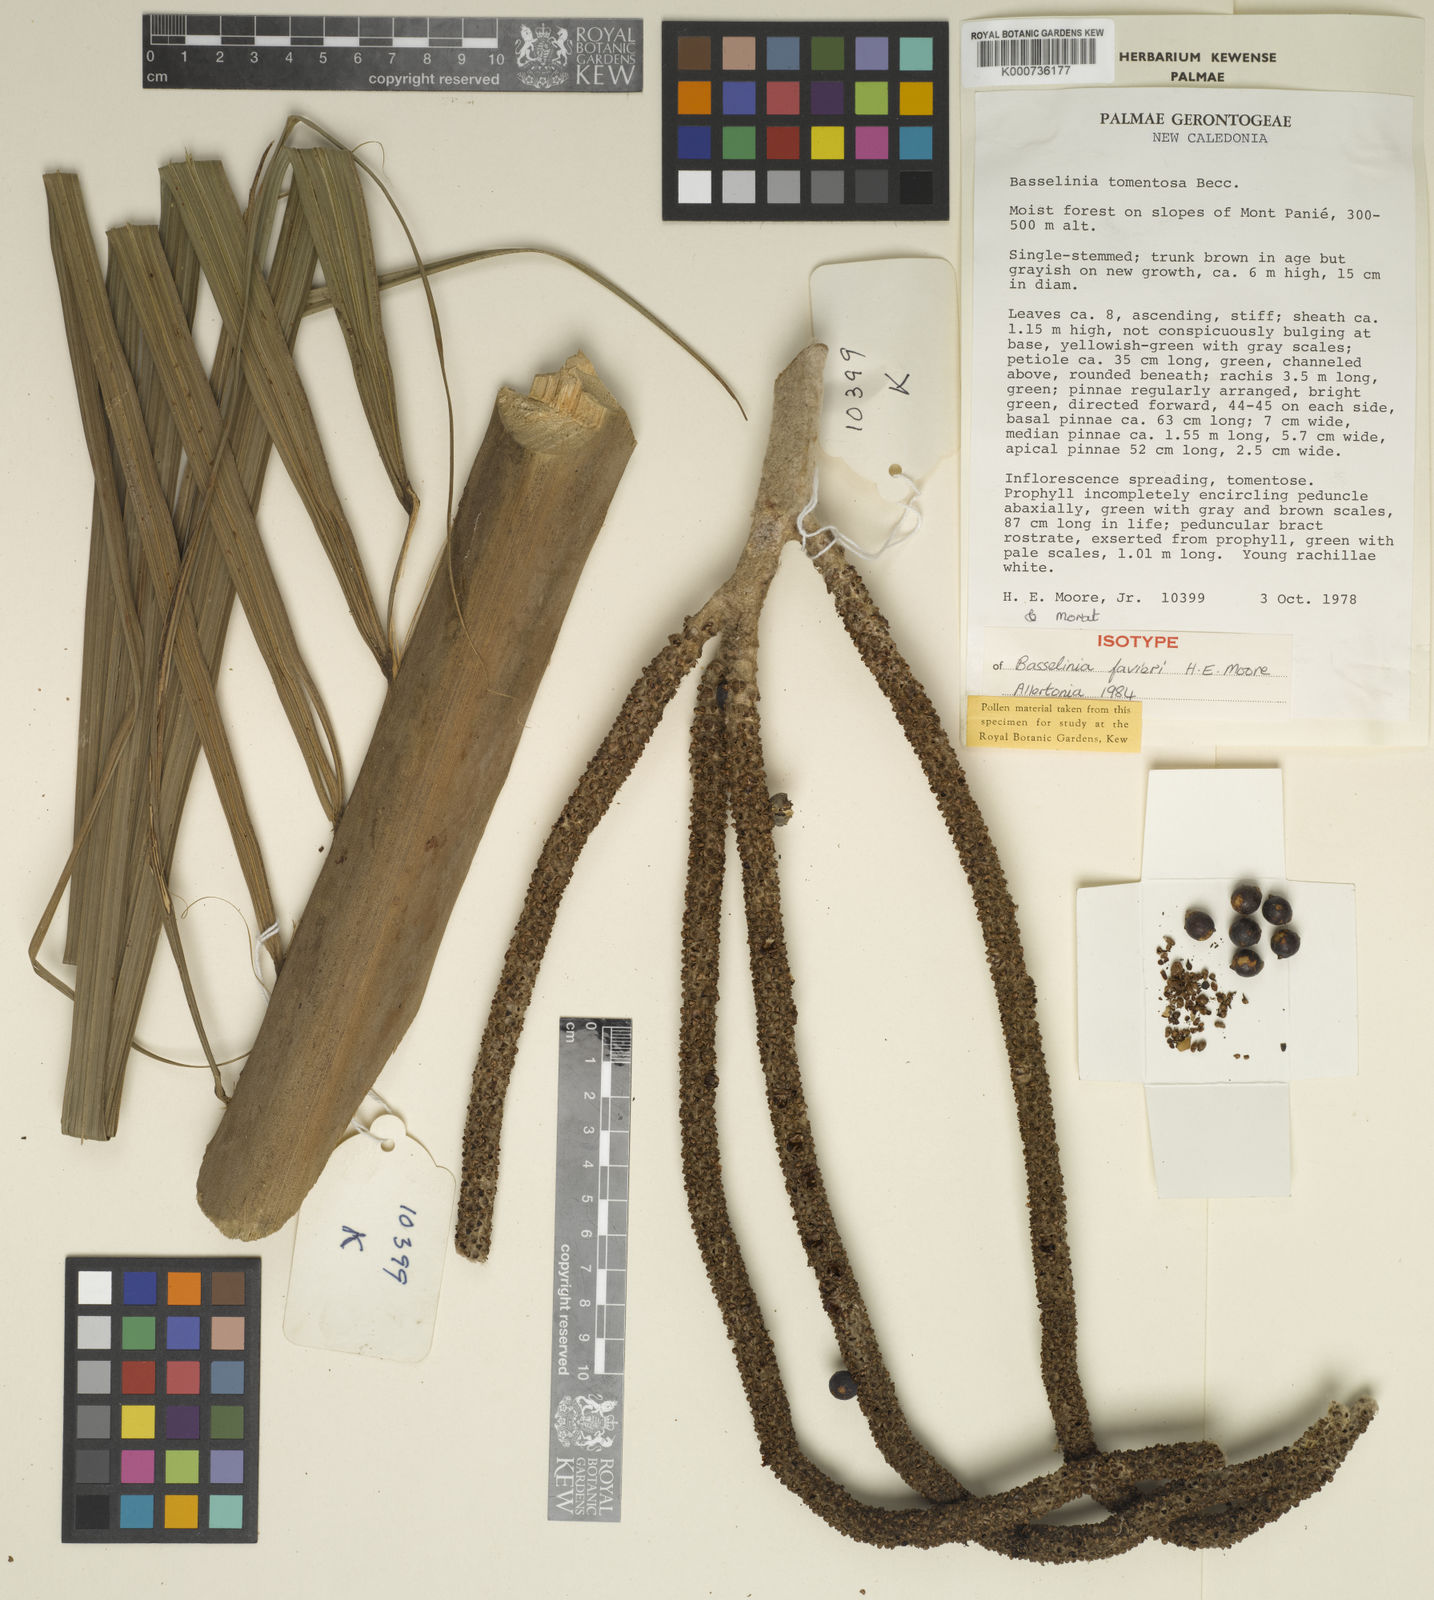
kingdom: Plantae
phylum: Tracheophyta
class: Liliopsida
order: Arecales
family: Arecaceae
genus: Basselinia
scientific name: Basselinia favieri
